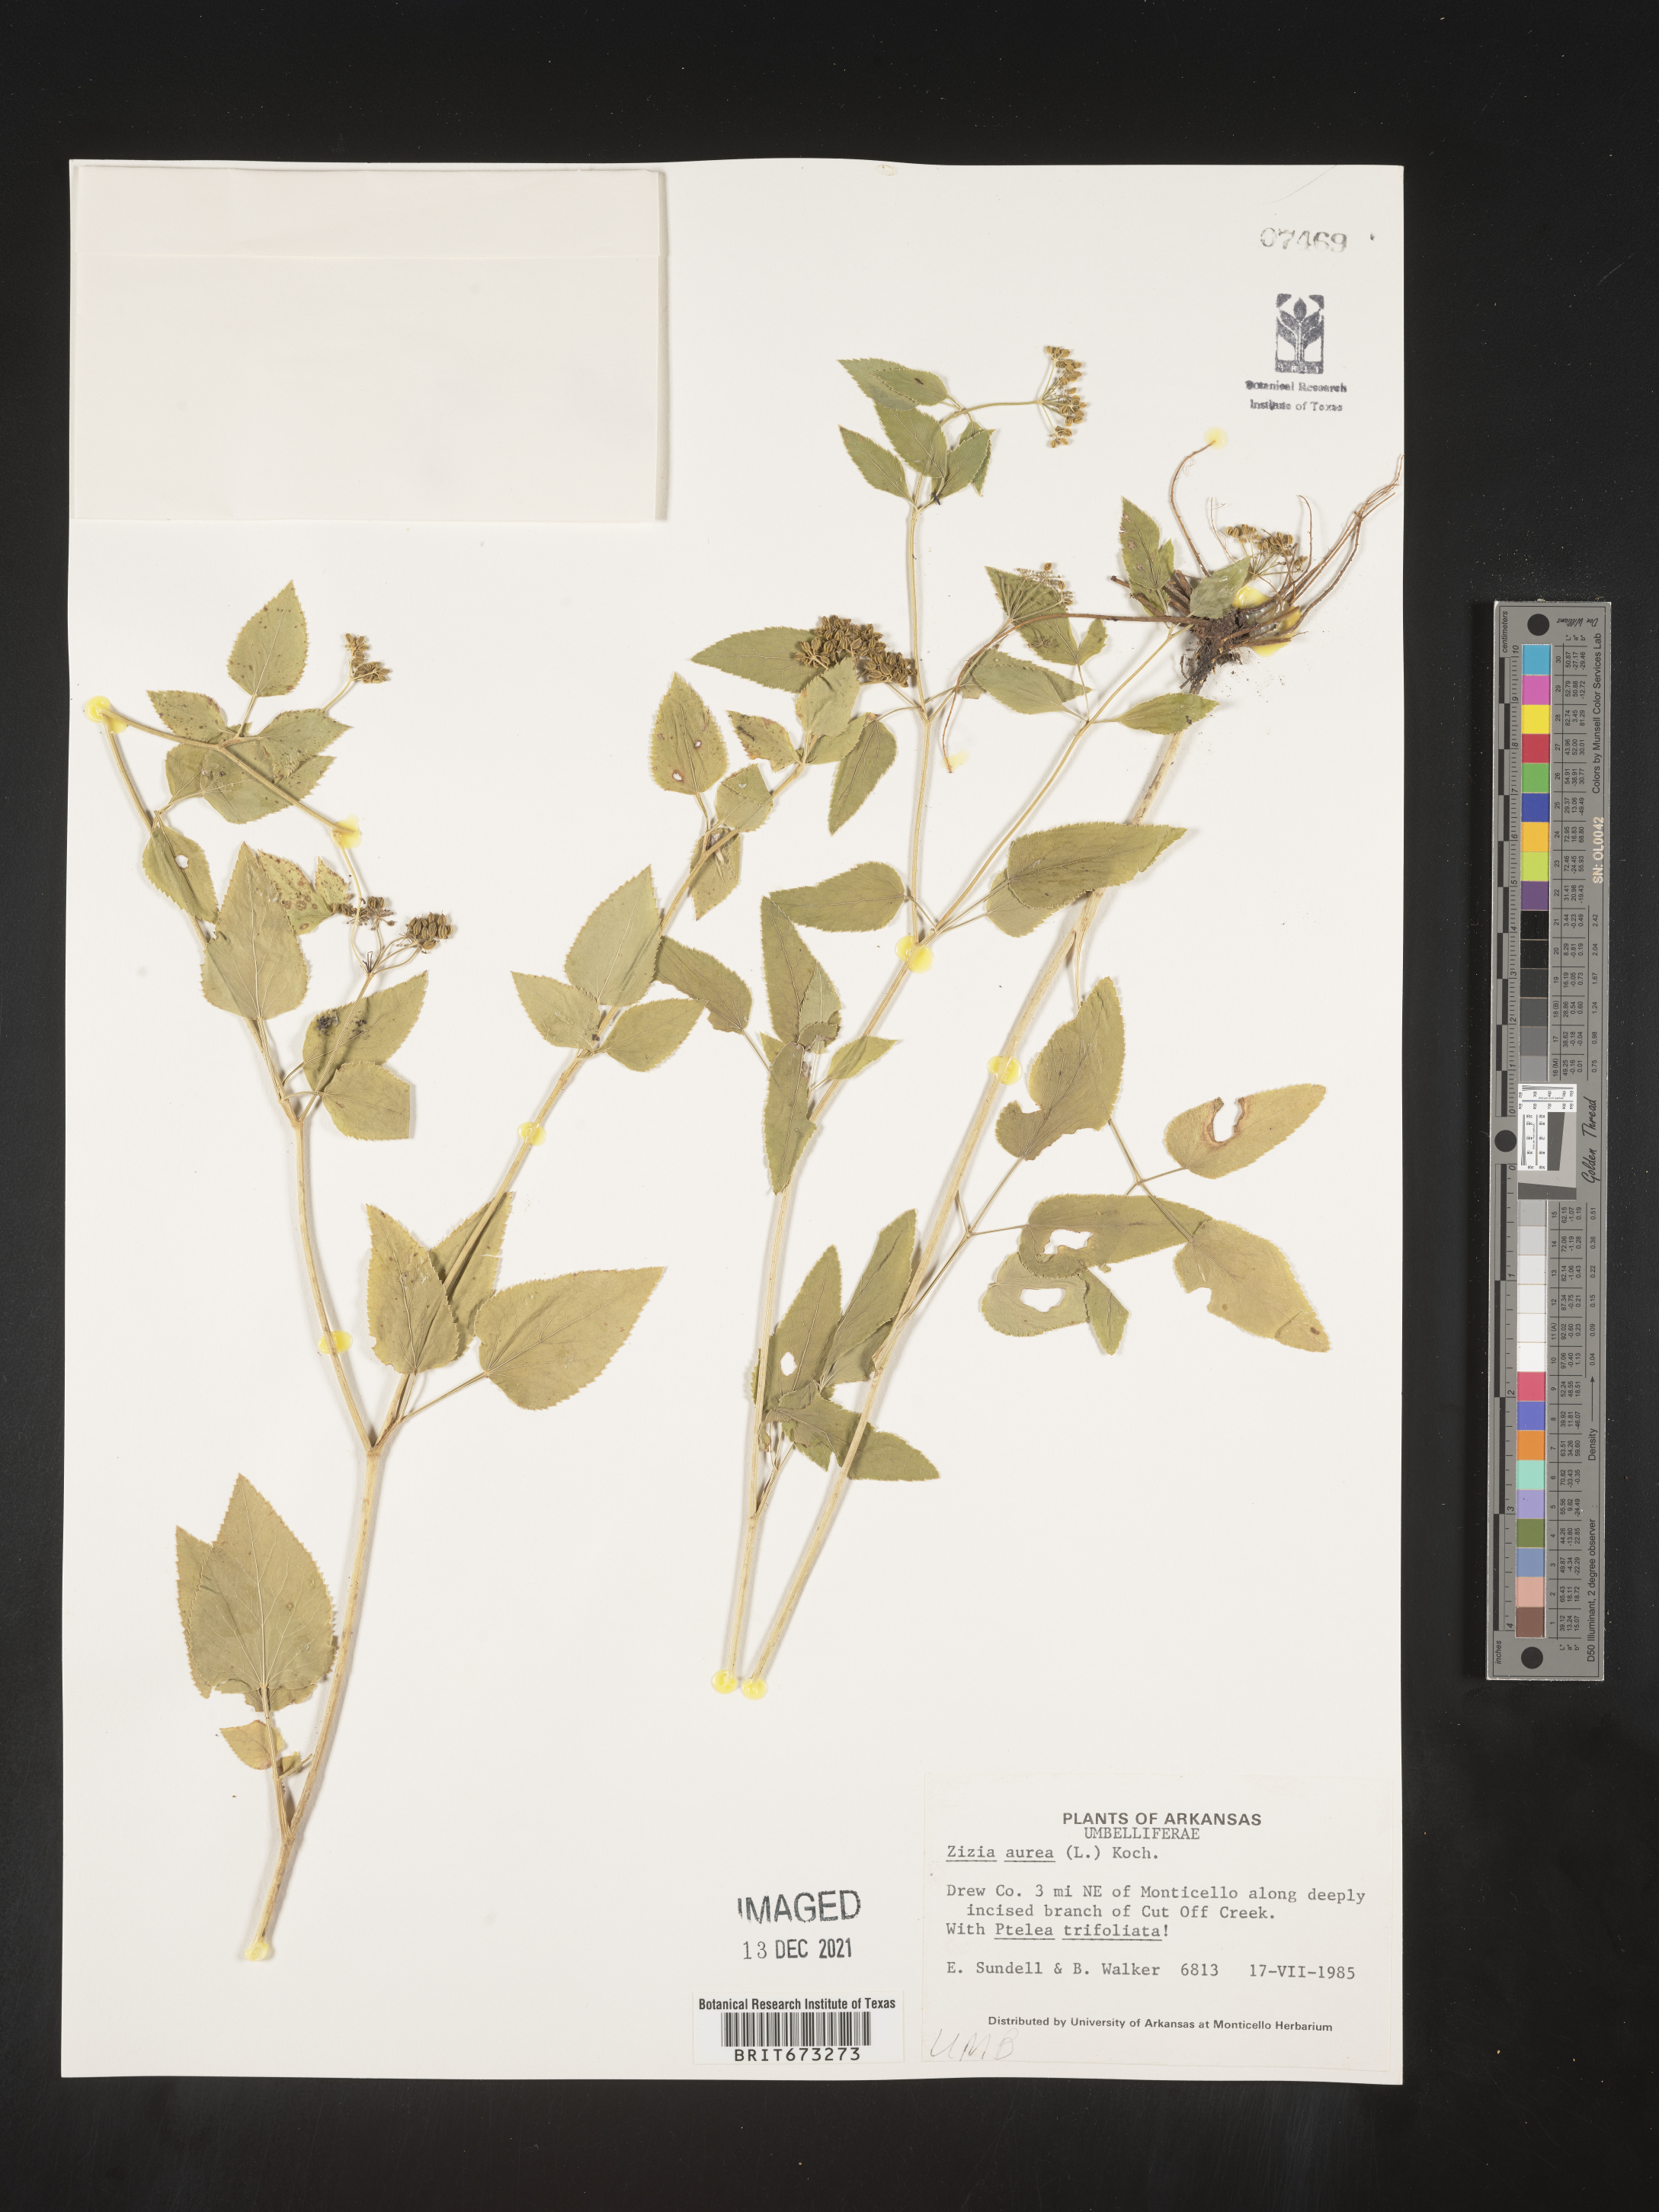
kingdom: Plantae
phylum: Tracheophyta
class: Magnoliopsida
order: Apiales
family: Apiaceae
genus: Zizia
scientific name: Zizia aurea
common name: Golden alexanders
